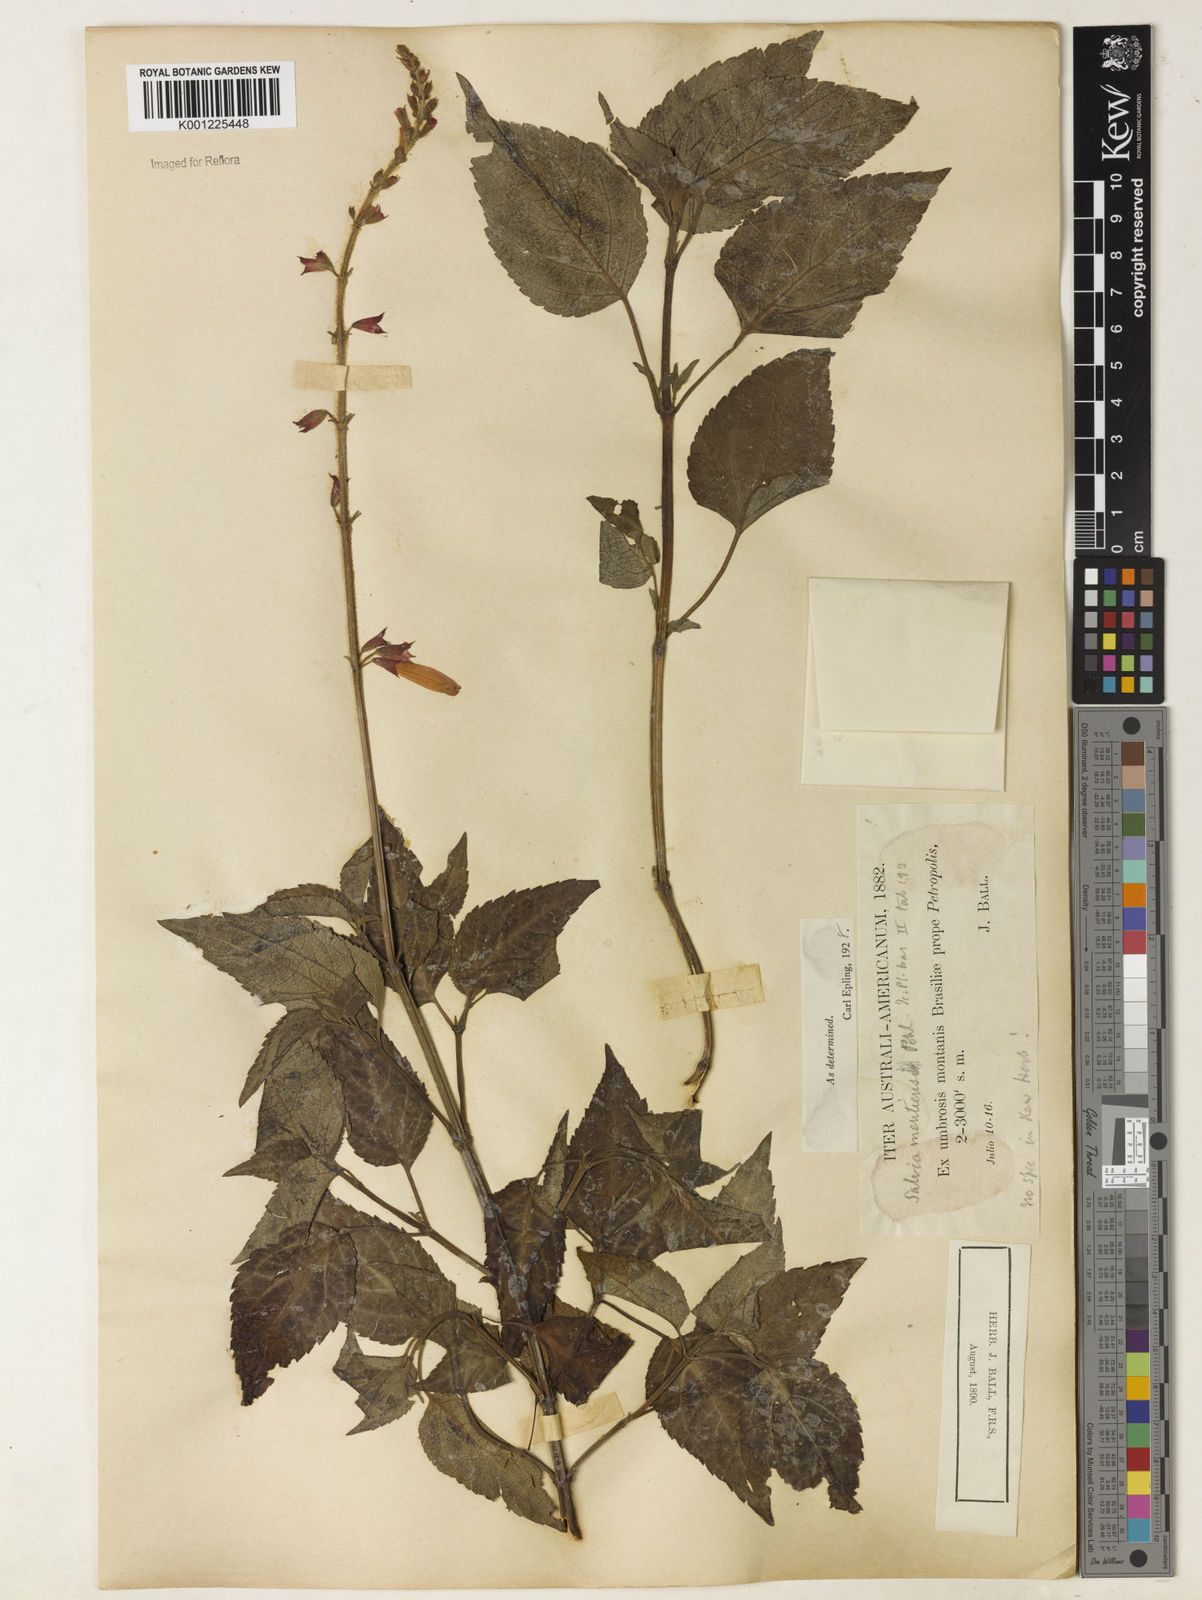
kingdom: Plantae
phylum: Tracheophyta
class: Magnoliopsida
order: Lamiales
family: Lamiaceae
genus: Salvia
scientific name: Salvia mentiens
